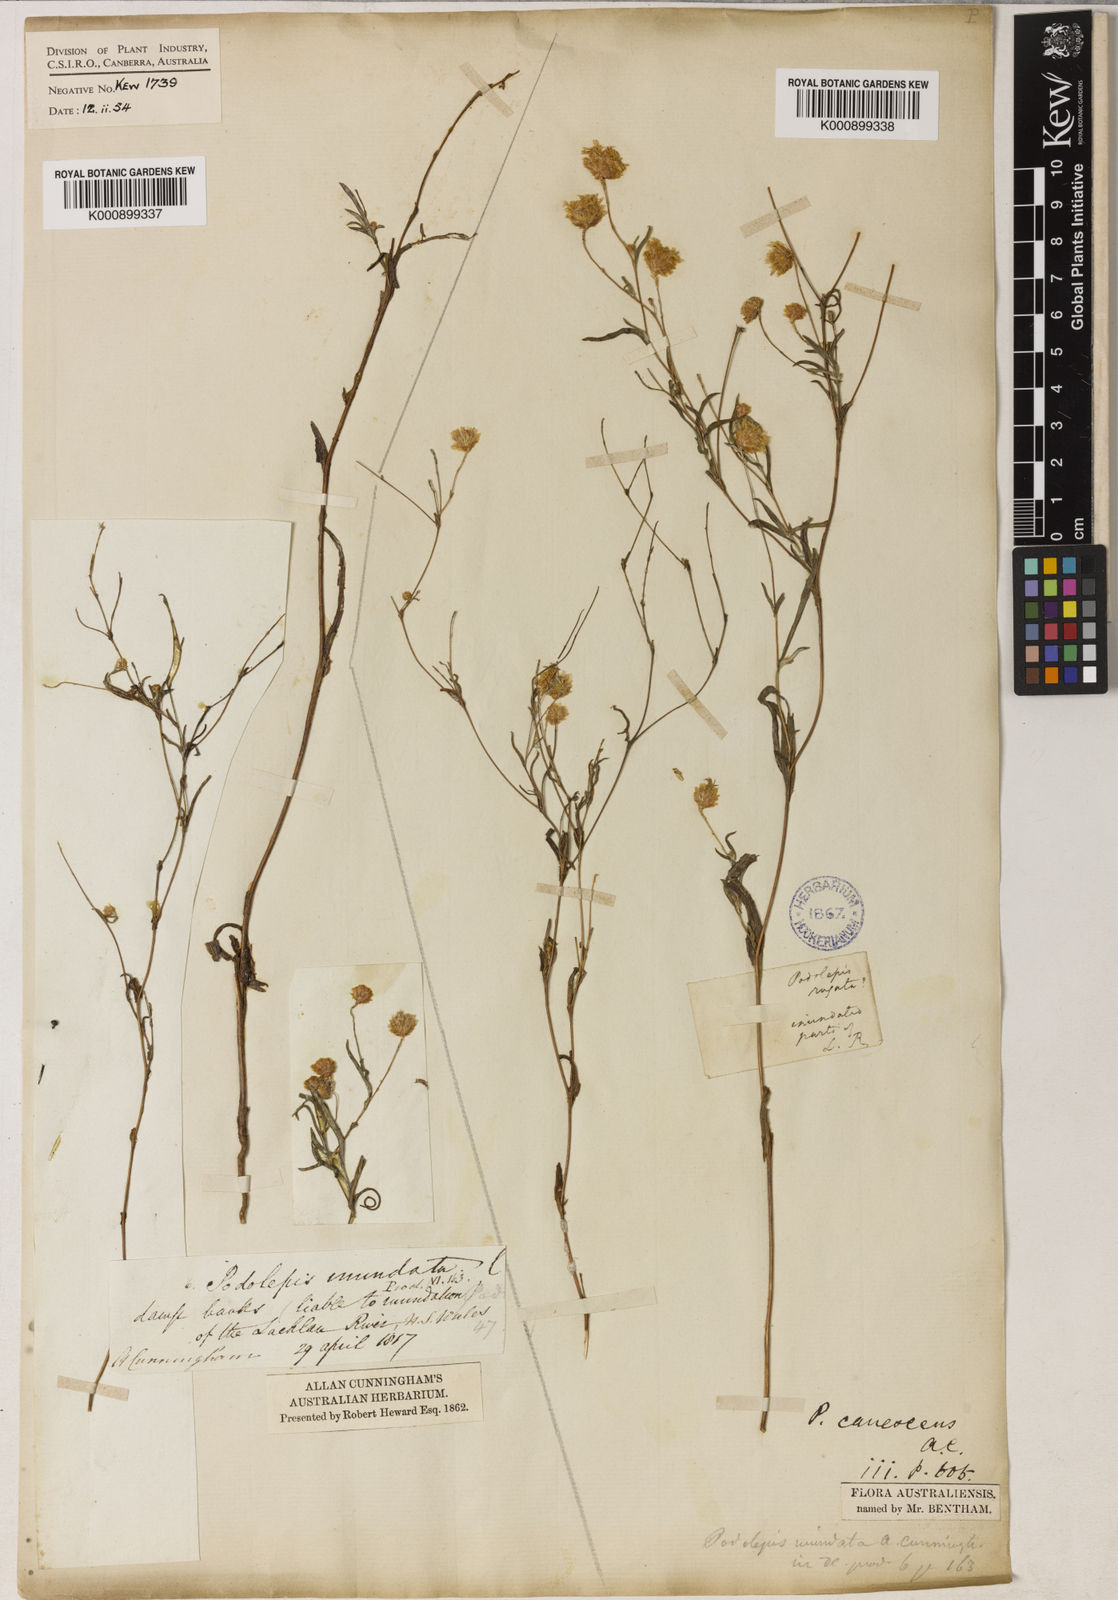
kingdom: Plantae
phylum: Tracheophyta
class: Magnoliopsida
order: Asterales
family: Asteraceae
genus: Podolepis
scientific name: Podolepis canescens
